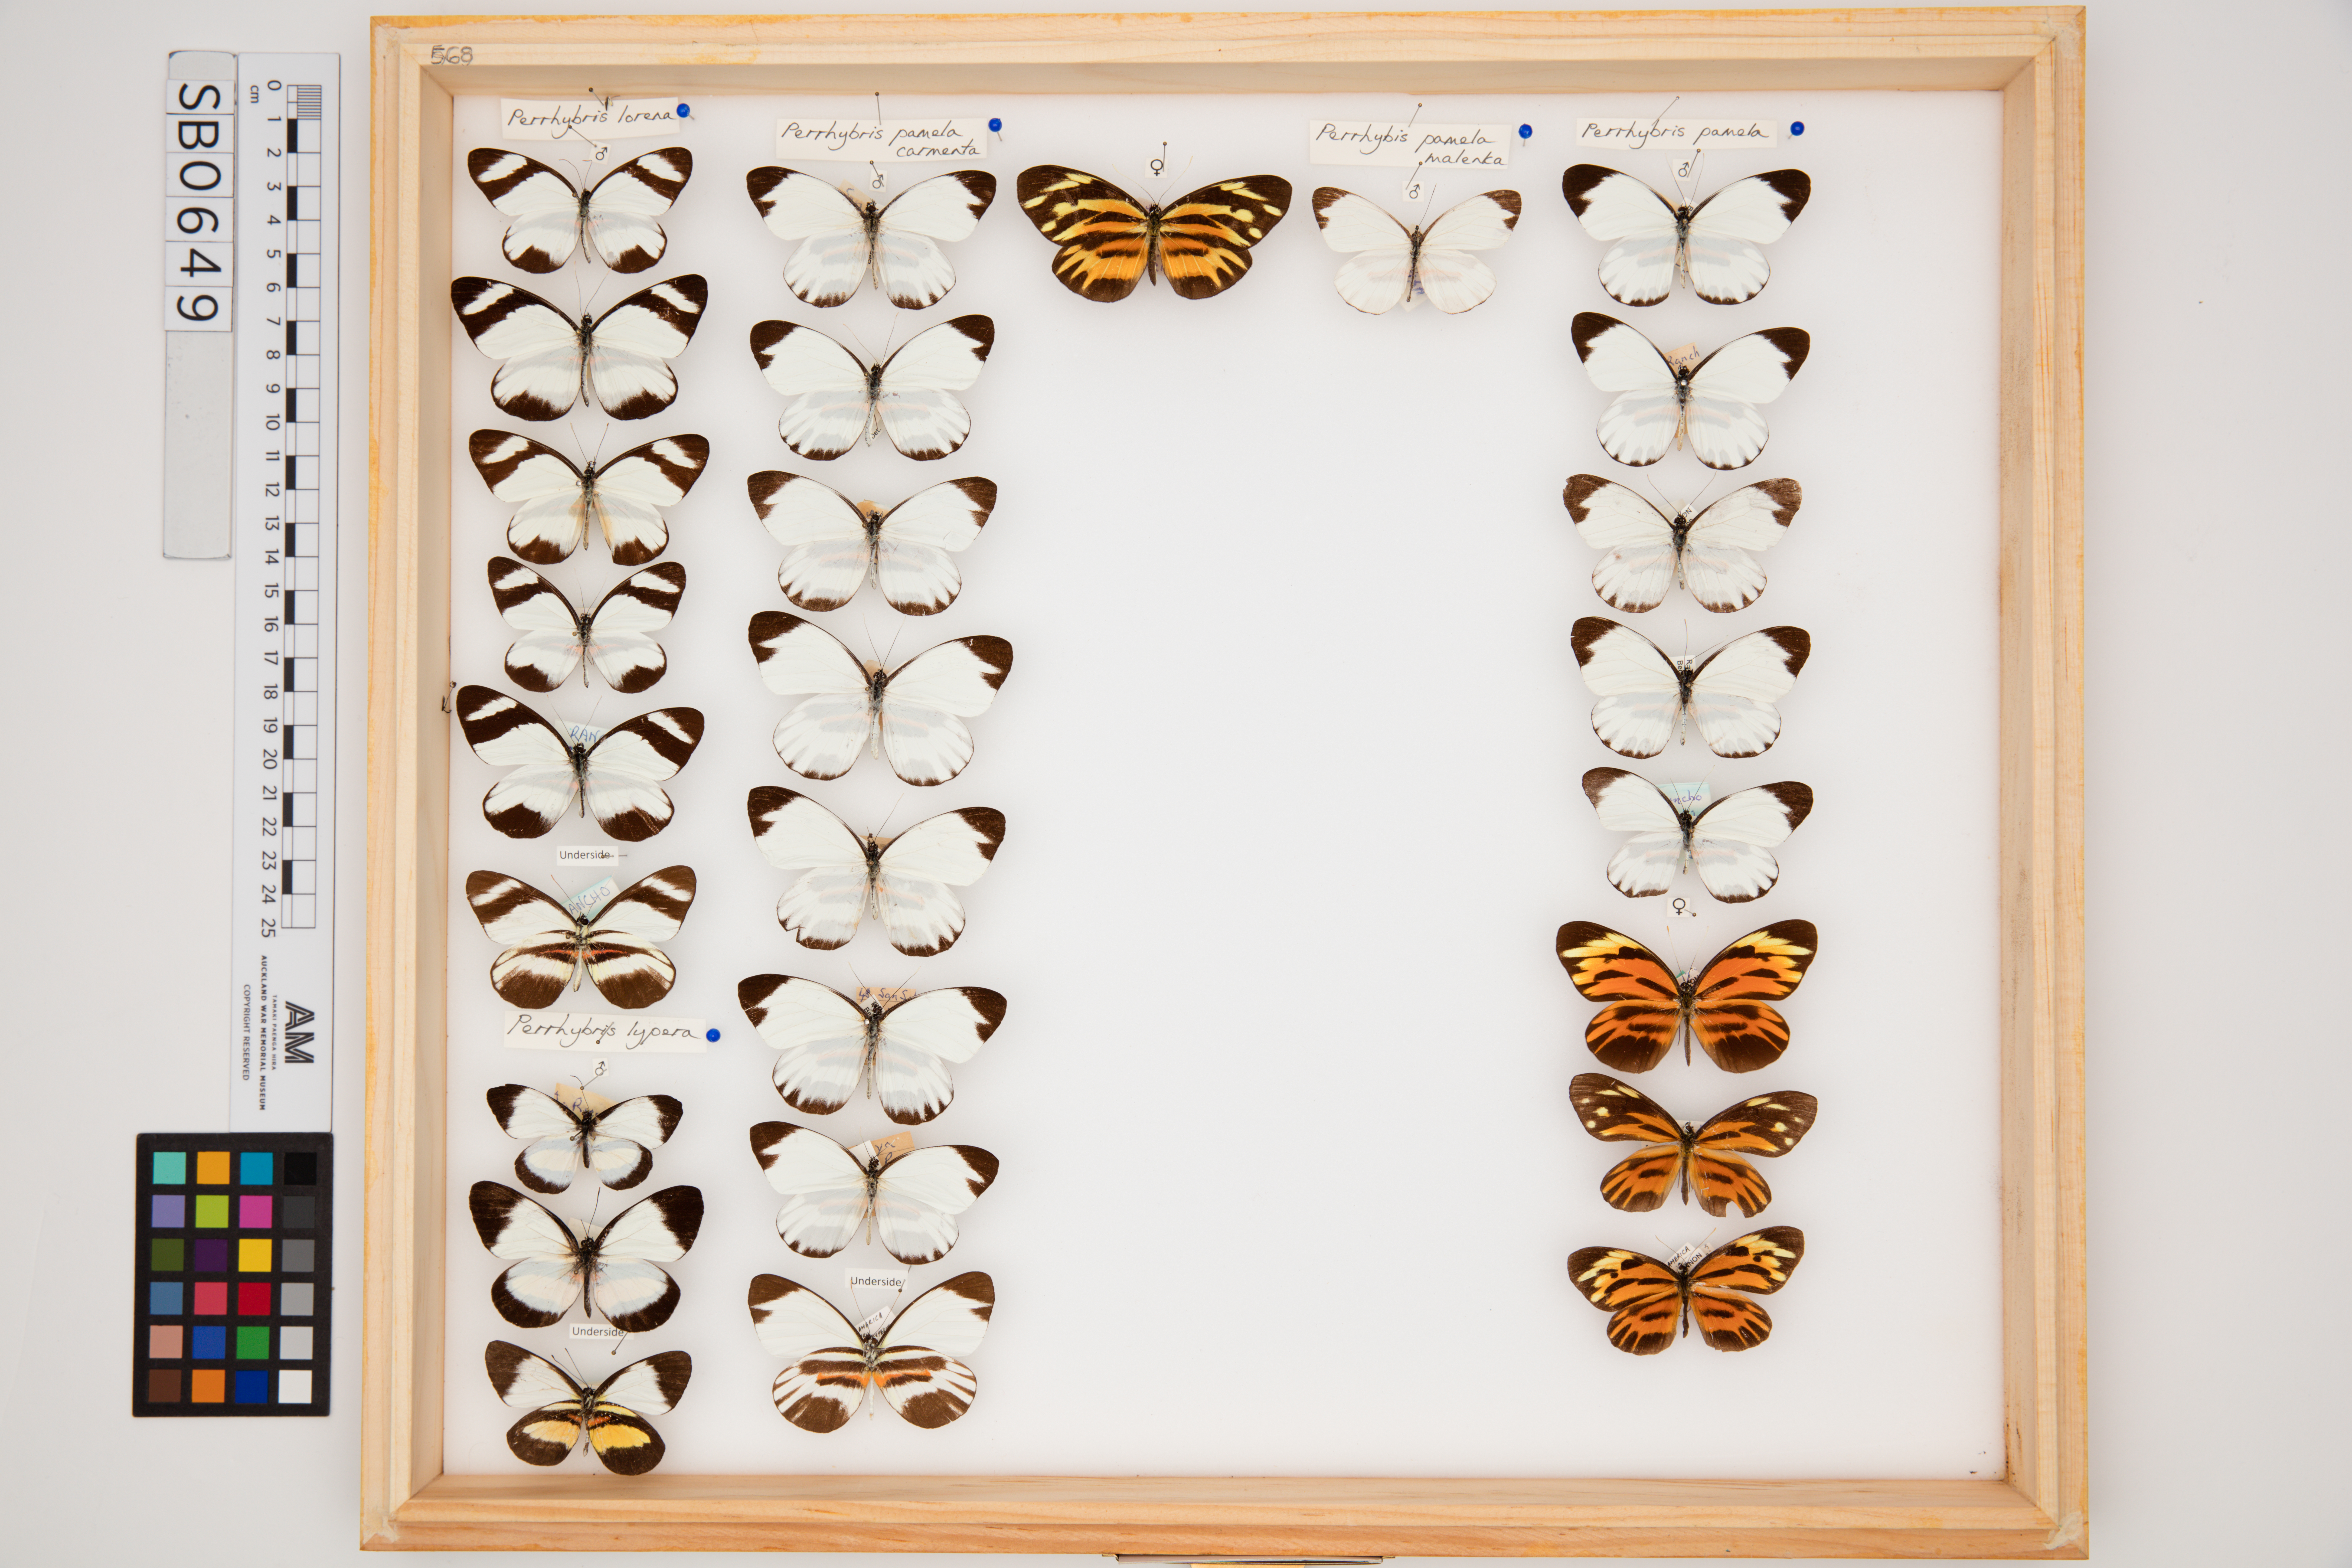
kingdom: Animalia
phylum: Arthropoda
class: Insecta
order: Lepidoptera
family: Pieridae
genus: Perrhybris
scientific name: Perrhybris lypera
